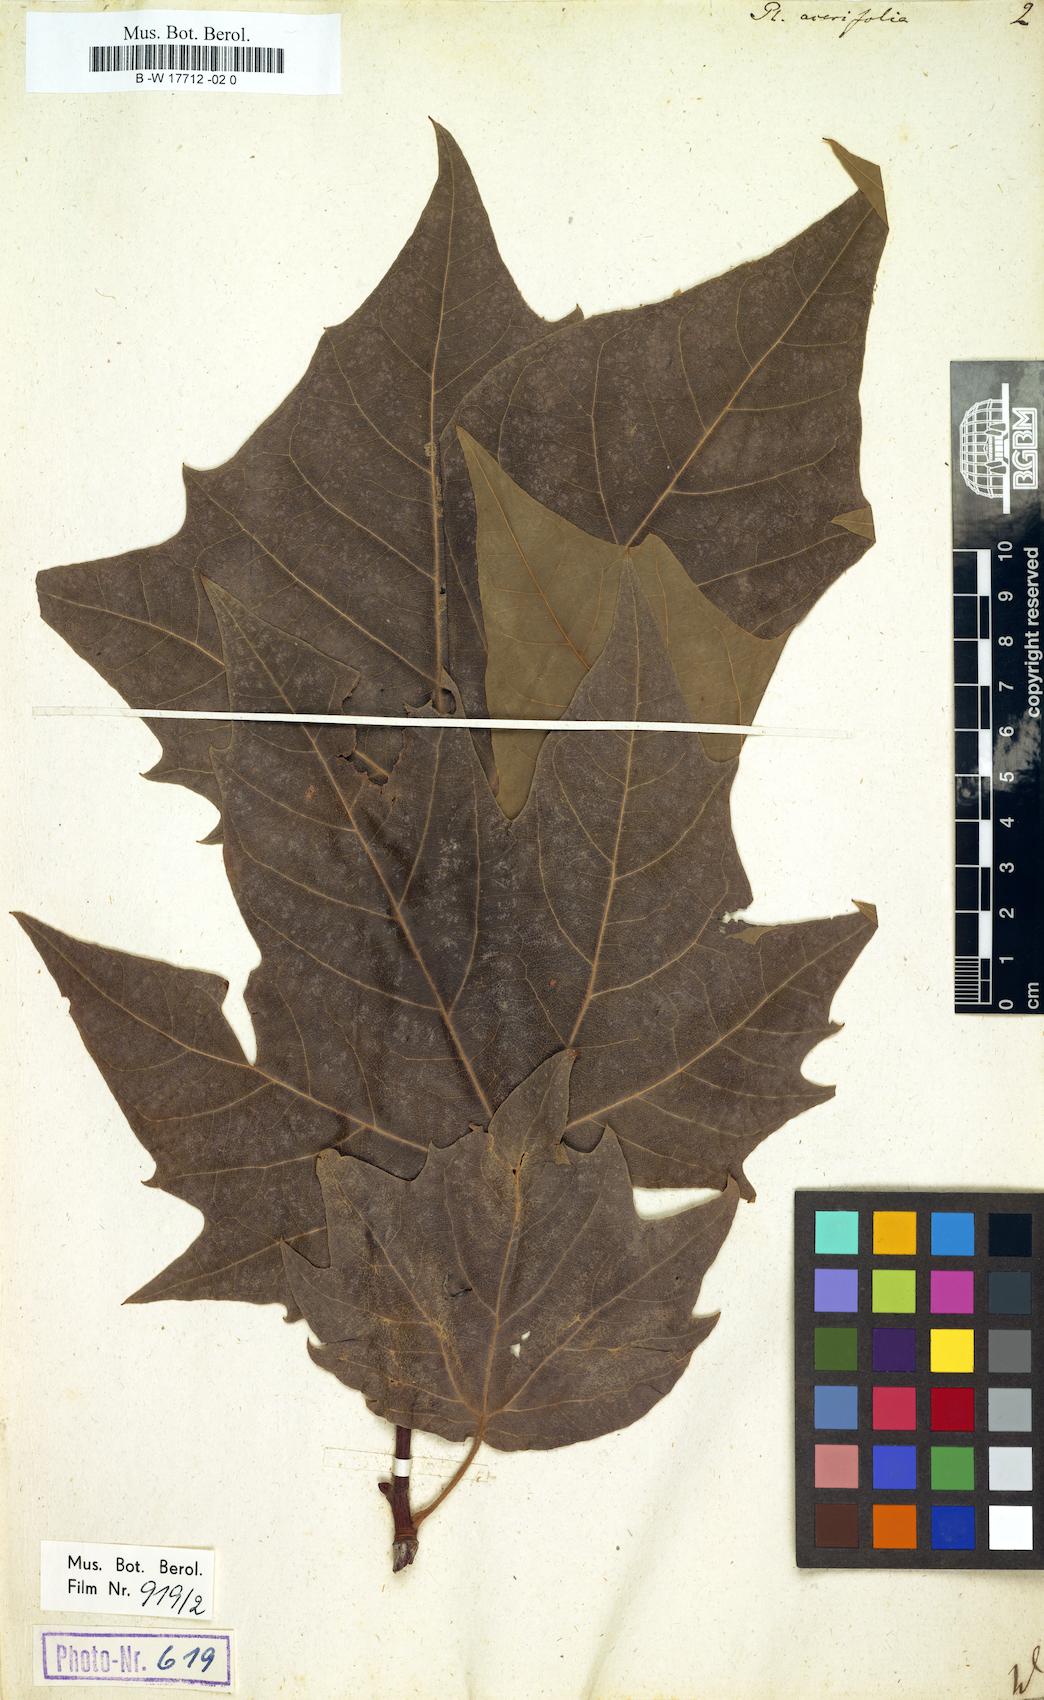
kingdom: Plantae
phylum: Tracheophyta
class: Magnoliopsida
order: Proteales
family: Platanaceae
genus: Platanus
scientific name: Platanus hispanica
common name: London plane
